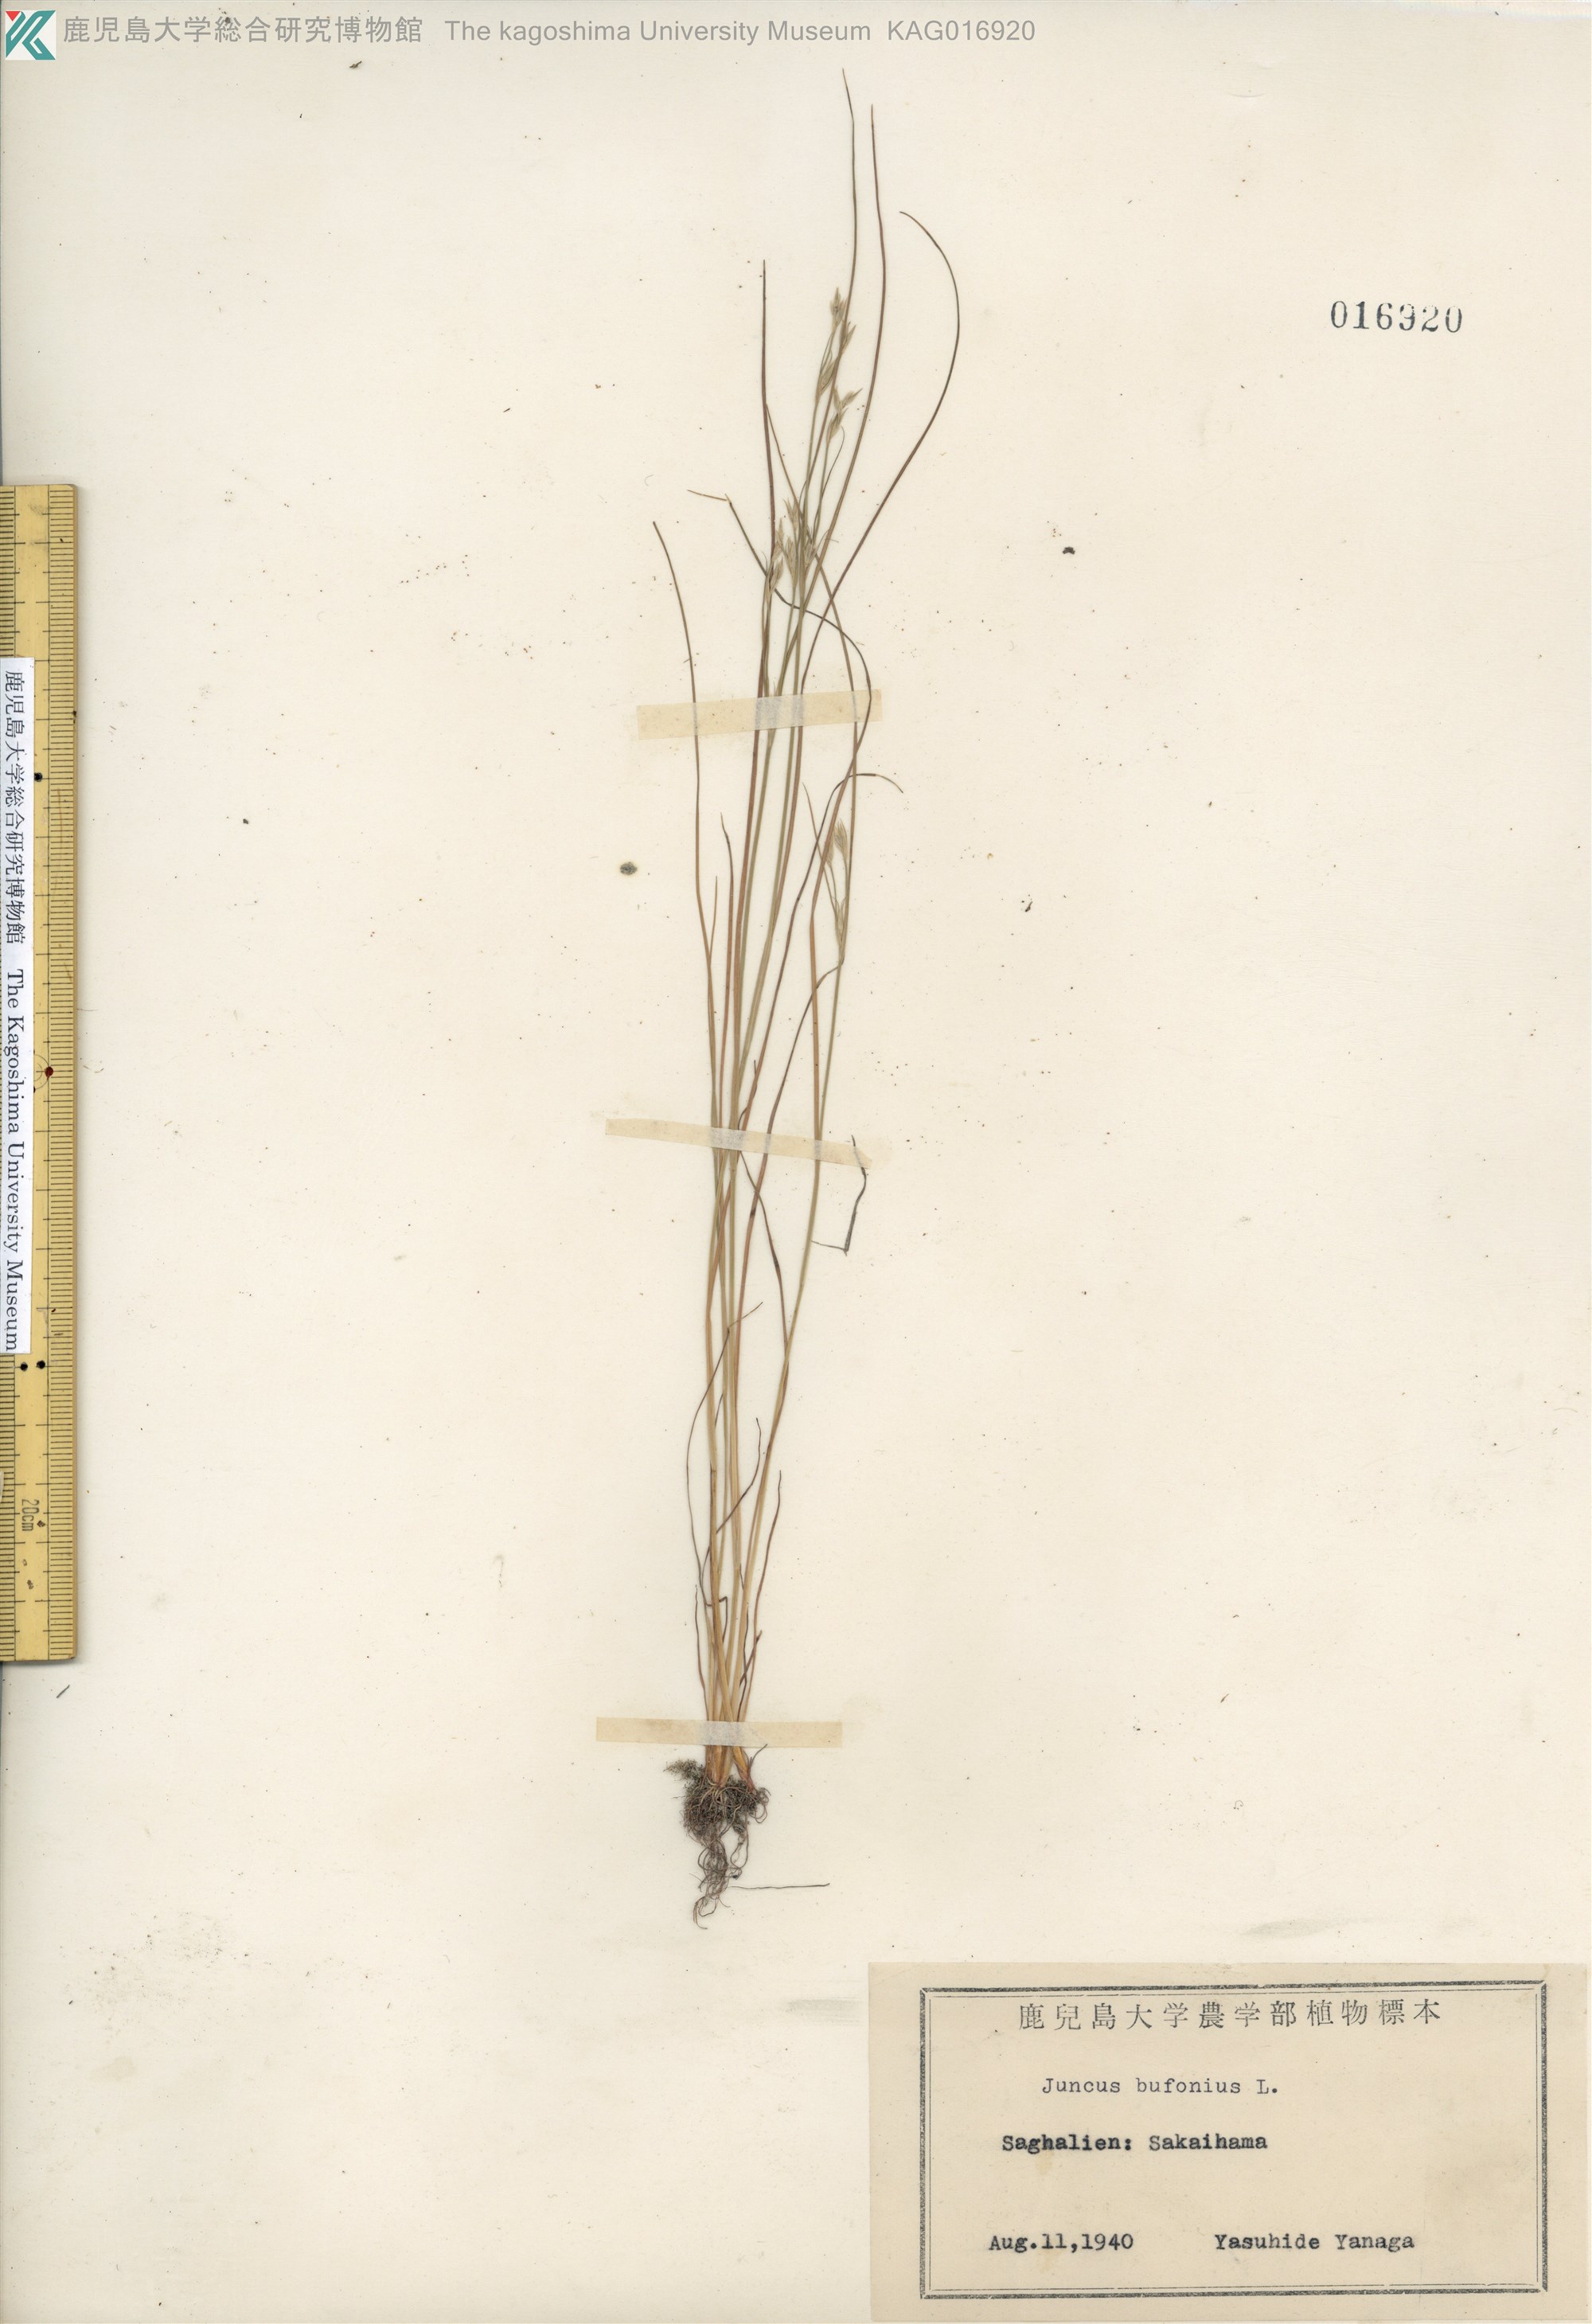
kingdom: Plantae
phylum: Tracheophyta
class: Liliopsida
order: Poales
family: Juncaceae
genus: Juncus
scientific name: Juncus bufonius
